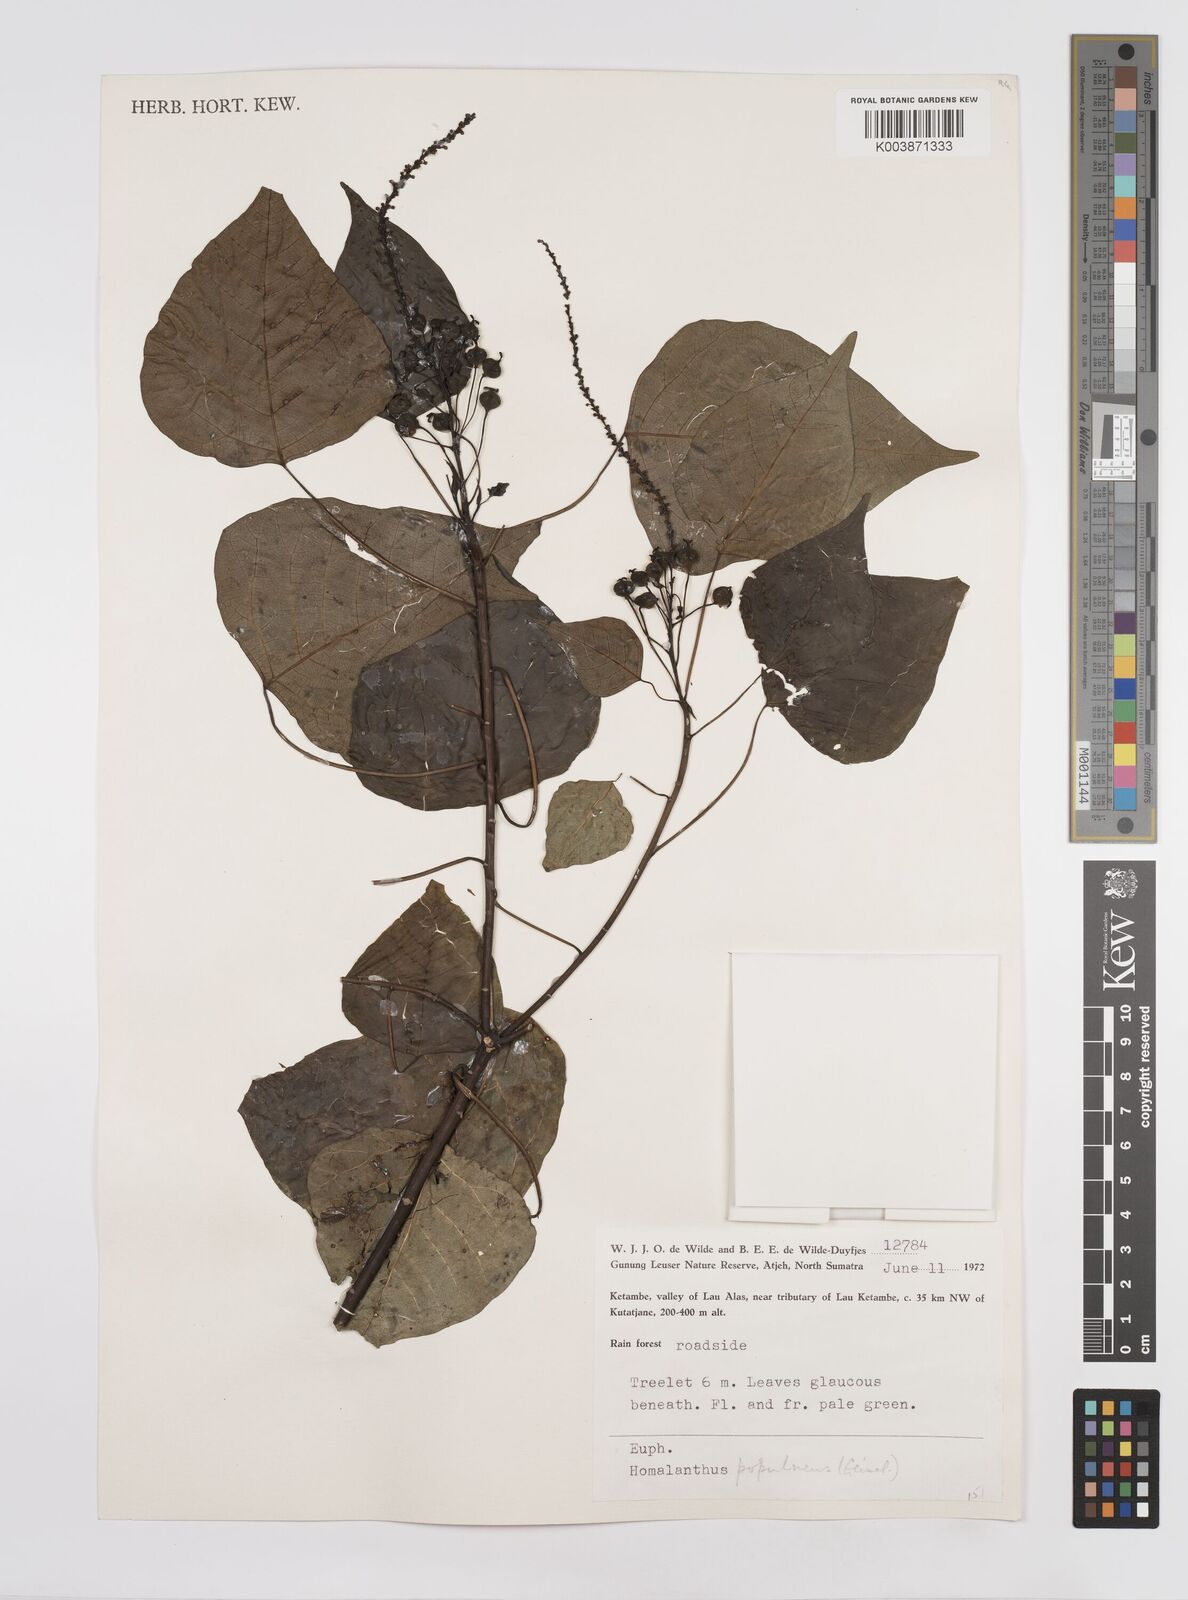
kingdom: Plantae
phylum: Tracheophyta
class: Magnoliopsida
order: Malpighiales
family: Euphorbiaceae
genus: Homalanthus
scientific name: Homalanthus populneus
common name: Spurge
